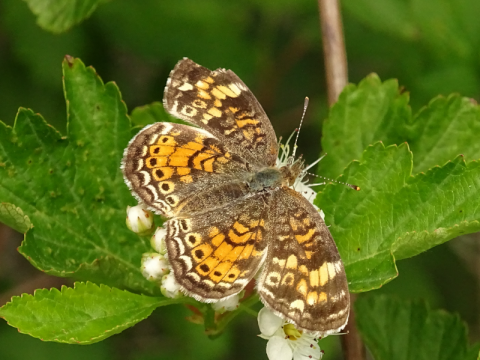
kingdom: Animalia
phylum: Arthropoda
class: Insecta
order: Lepidoptera
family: Nymphalidae
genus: Phyciodes
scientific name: Phyciodes tharos
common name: Pearl Crescent
